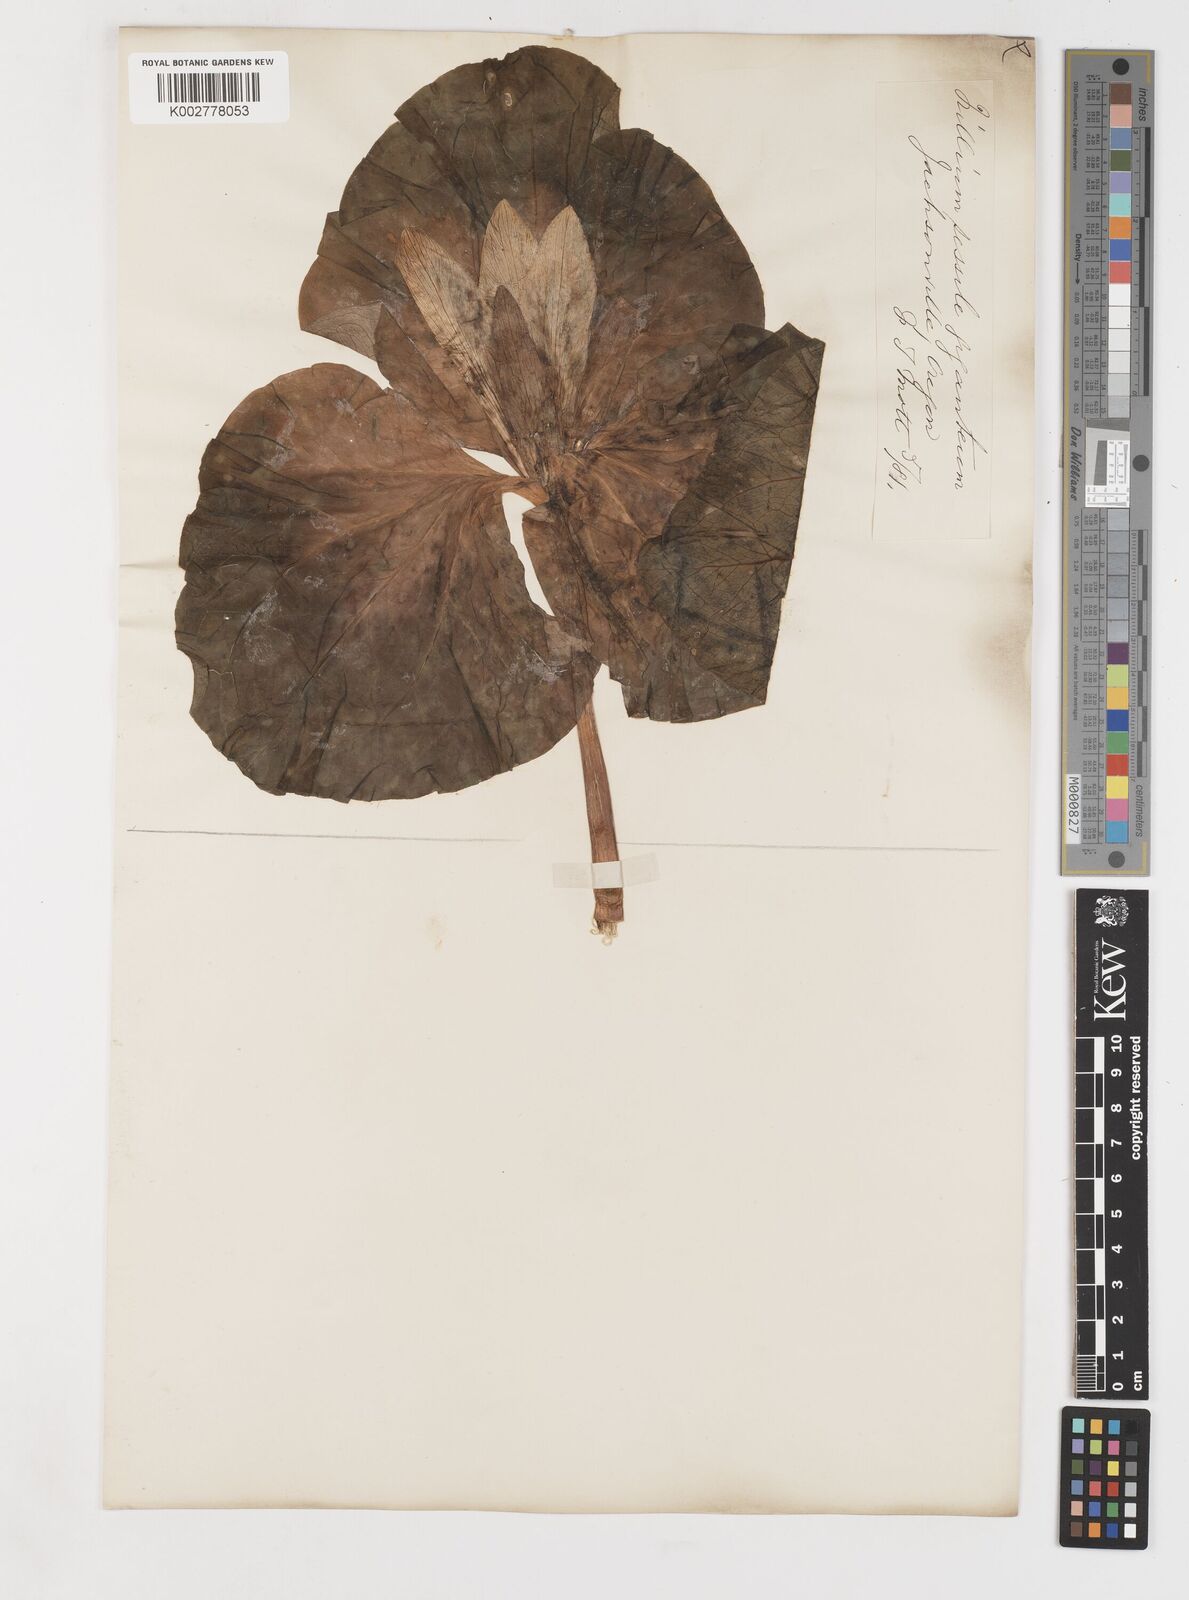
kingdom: Plantae
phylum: Tracheophyta
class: Liliopsida
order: Liliales
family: Melanthiaceae
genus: Trillium
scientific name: Trillium
